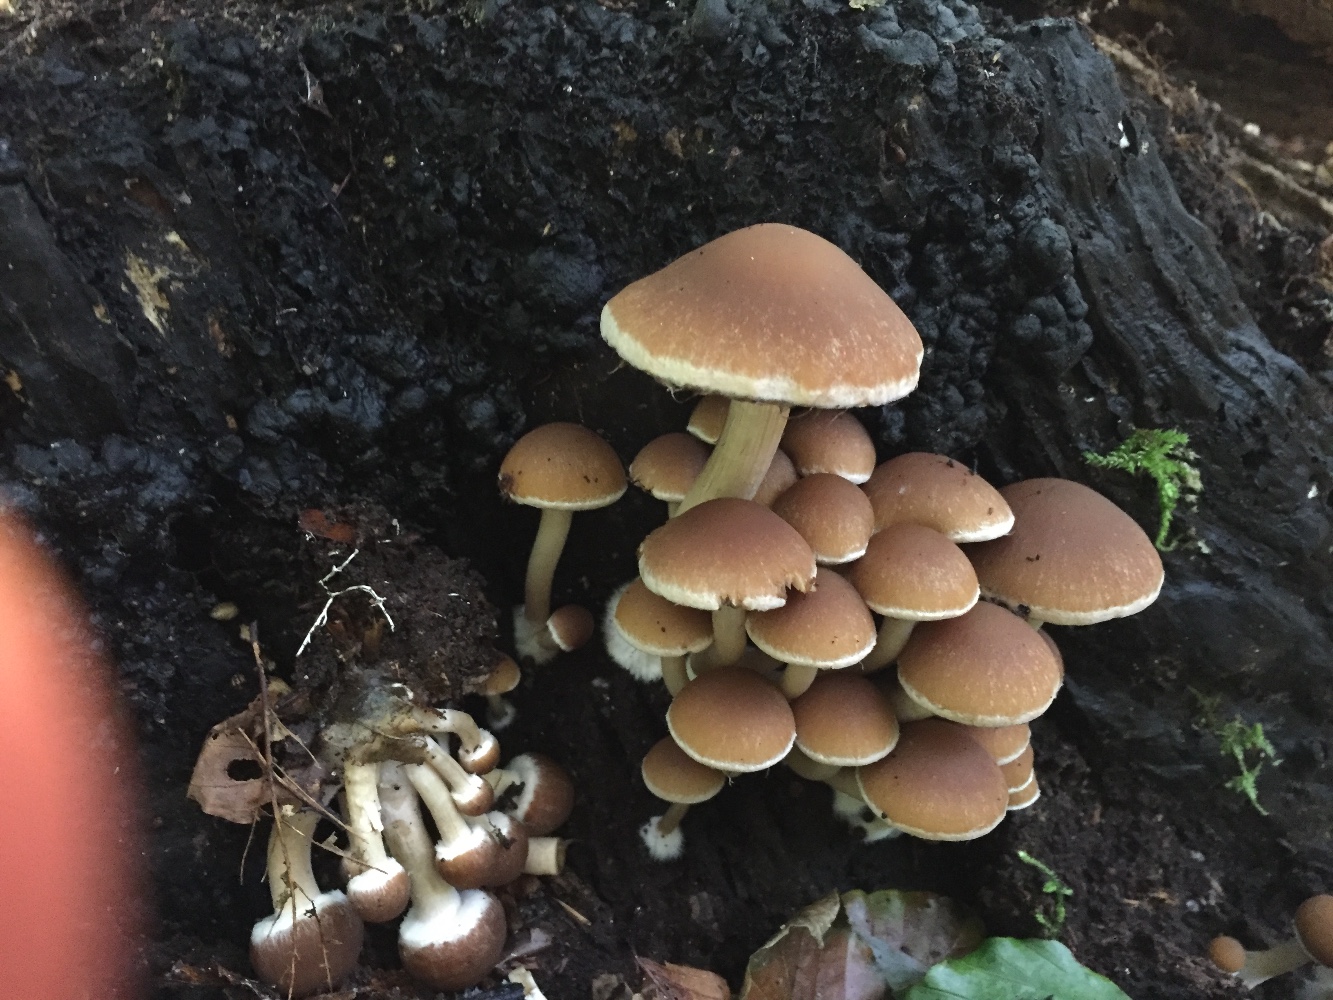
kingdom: Fungi
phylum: Basidiomycota
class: Agaricomycetes
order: Agaricales
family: Psathyrellaceae
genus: Psathyrella
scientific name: Psathyrella piluliformis
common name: lysstokket mørkhat
